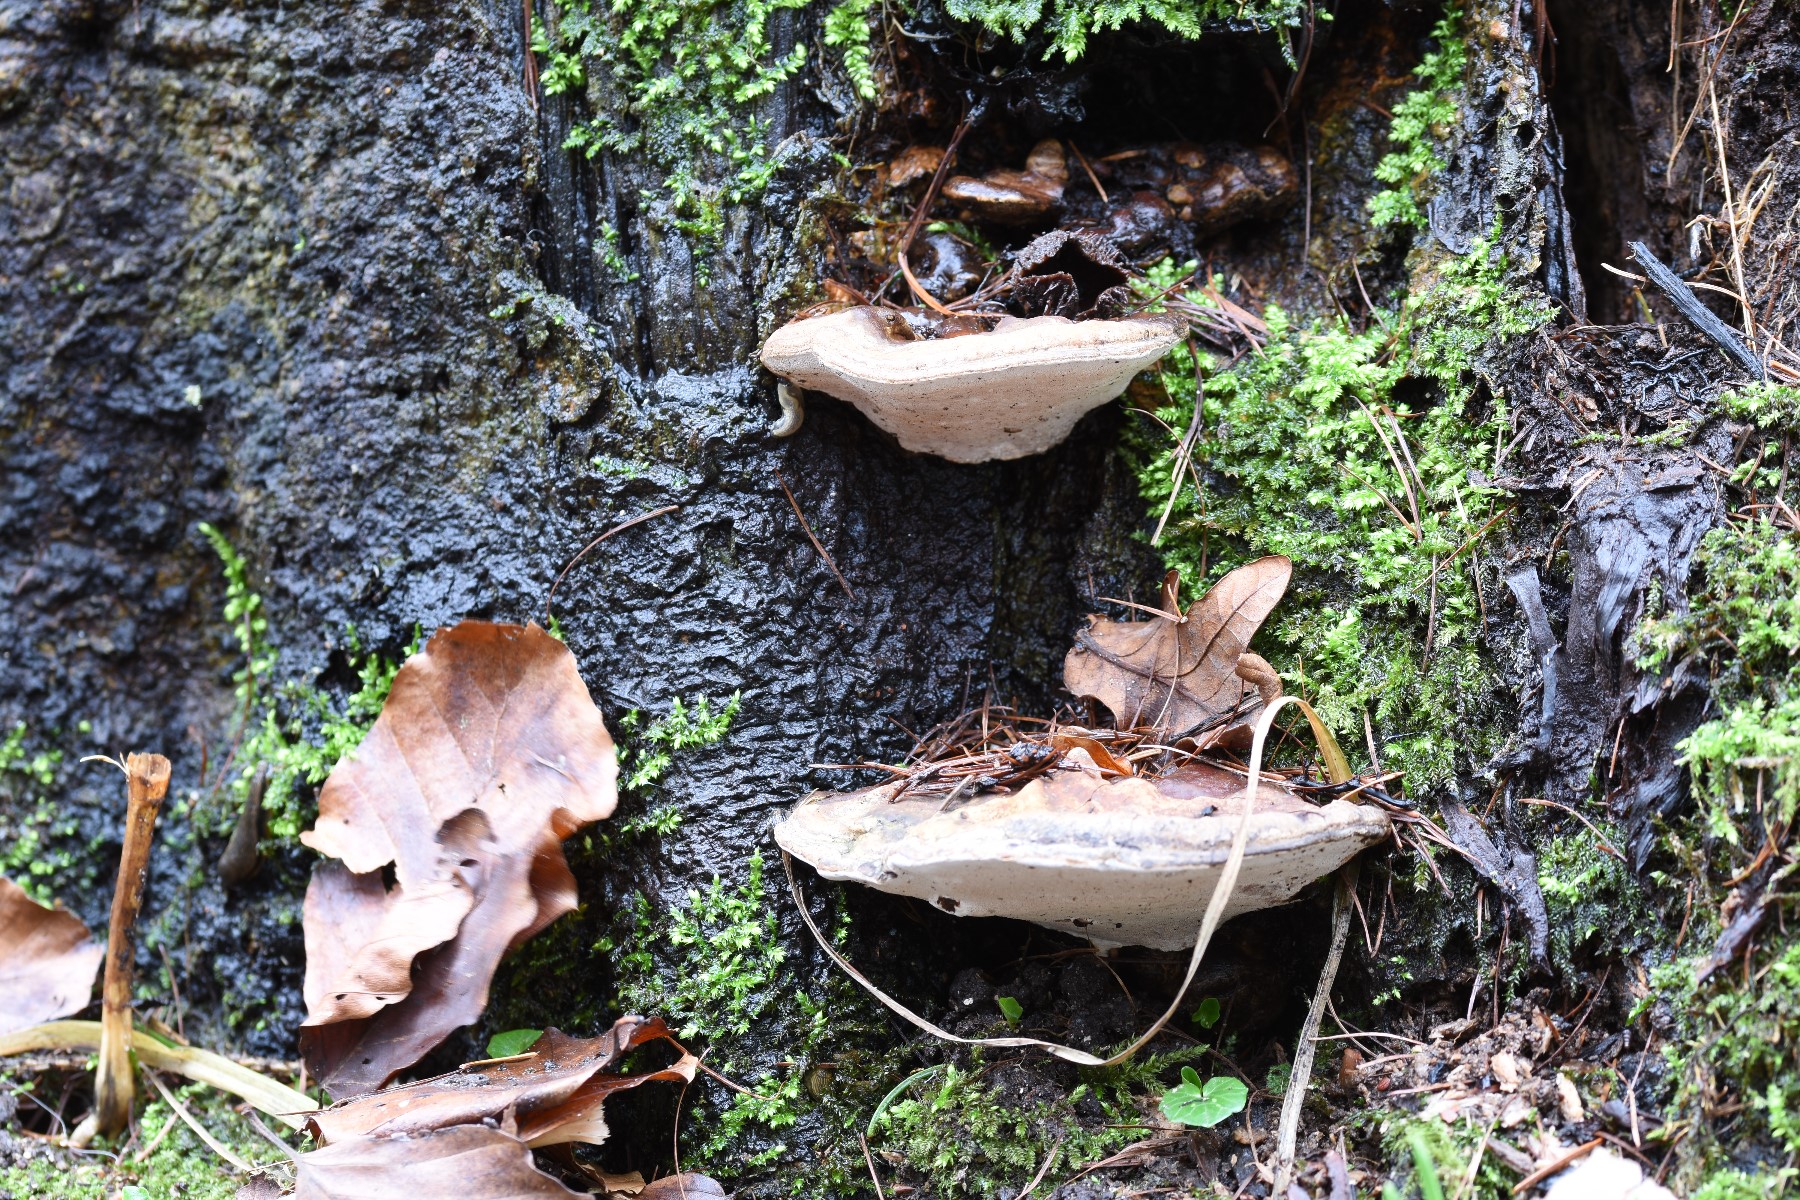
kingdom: Fungi
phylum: Basidiomycota
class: Agaricomycetes
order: Polyporales
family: Polyporaceae
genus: Ganoderma
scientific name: Ganoderma applanatum
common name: flad lakporesvamp
